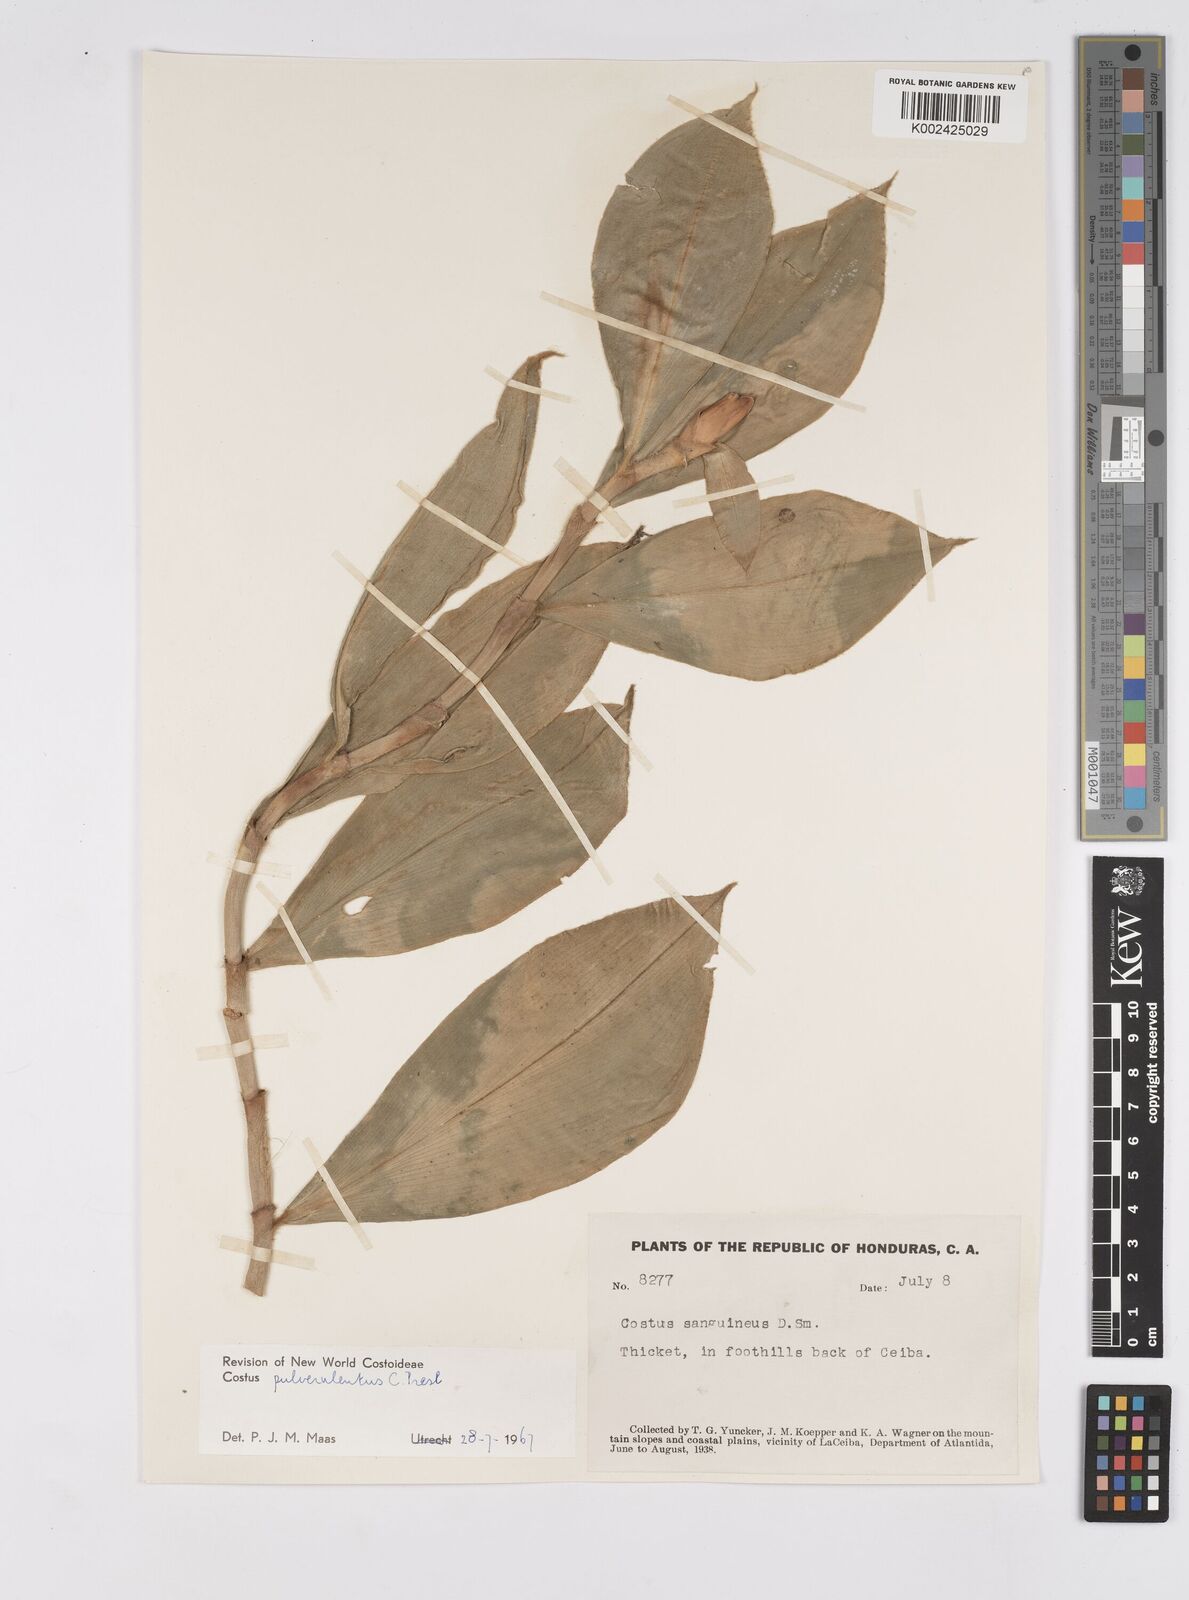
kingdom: Plantae
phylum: Tracheophyta
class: Liliopsida
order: Zingiberales
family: Costaceae
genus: Costus
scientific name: Costus pulverulentus
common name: Spiral ginger
